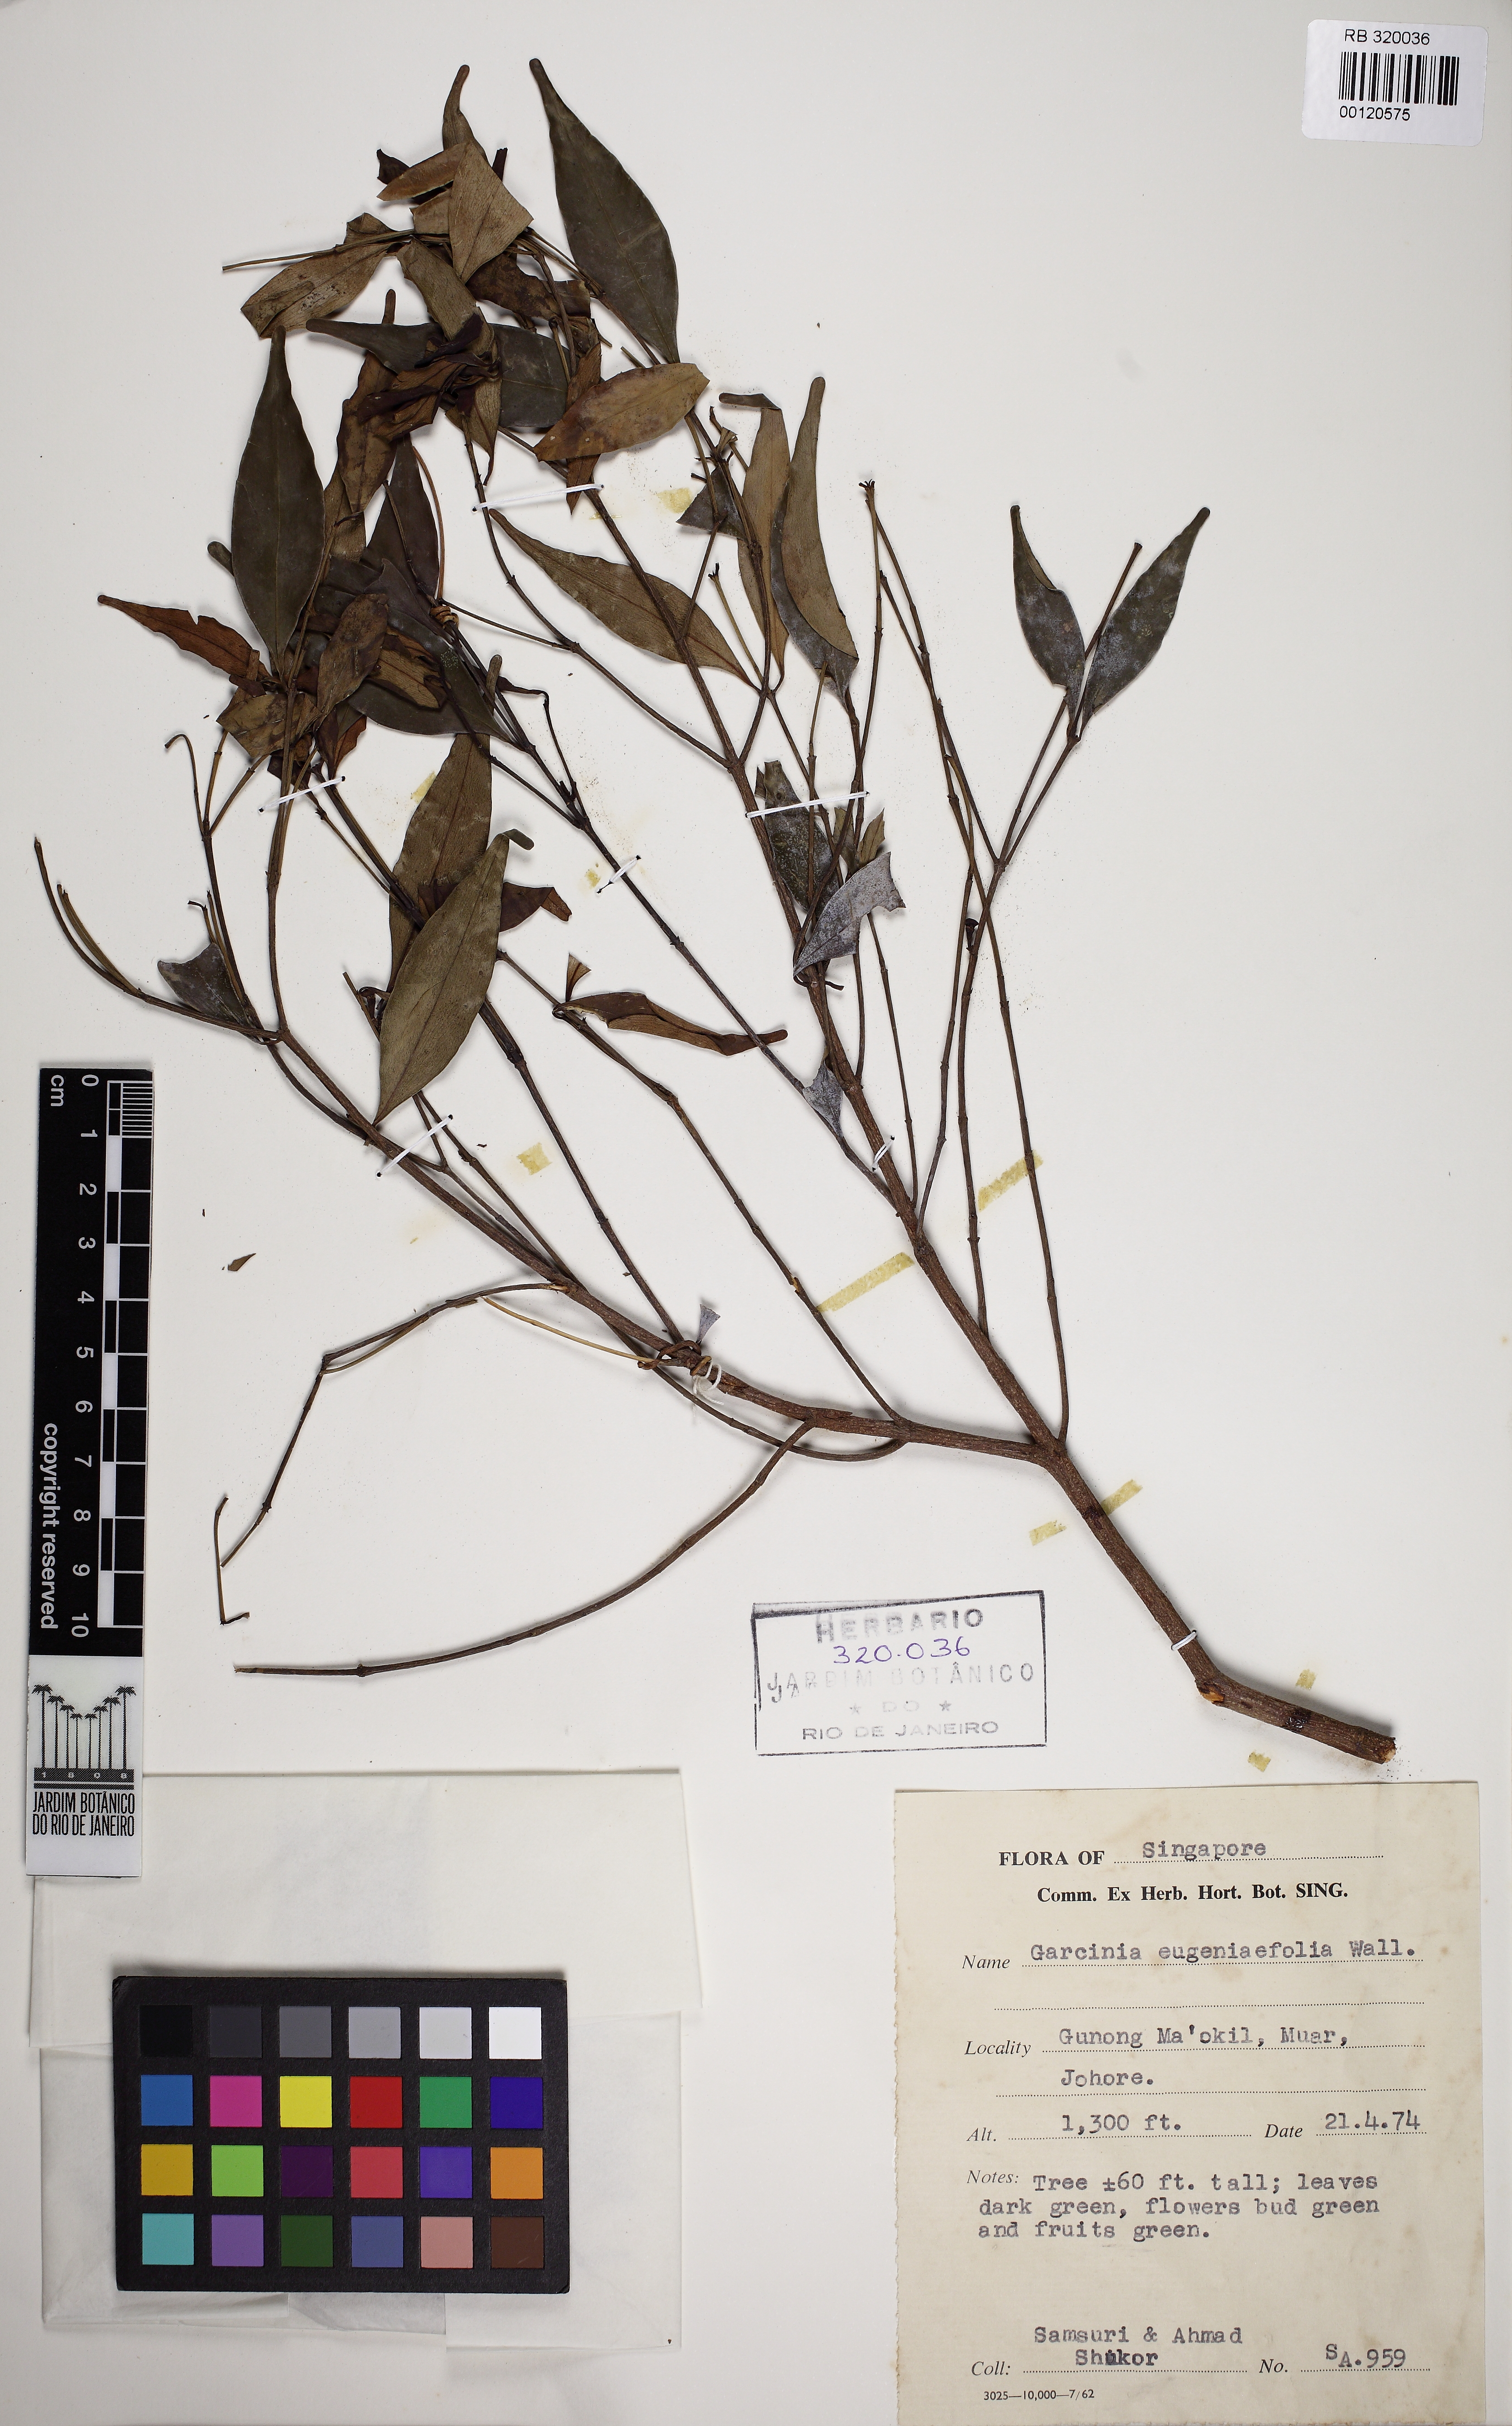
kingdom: Plantae
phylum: Tracheophyta
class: Magnoliopsida
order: Malpighiales
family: Clusiaceae
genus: Garcinia
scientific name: Garcinia brevirostris
